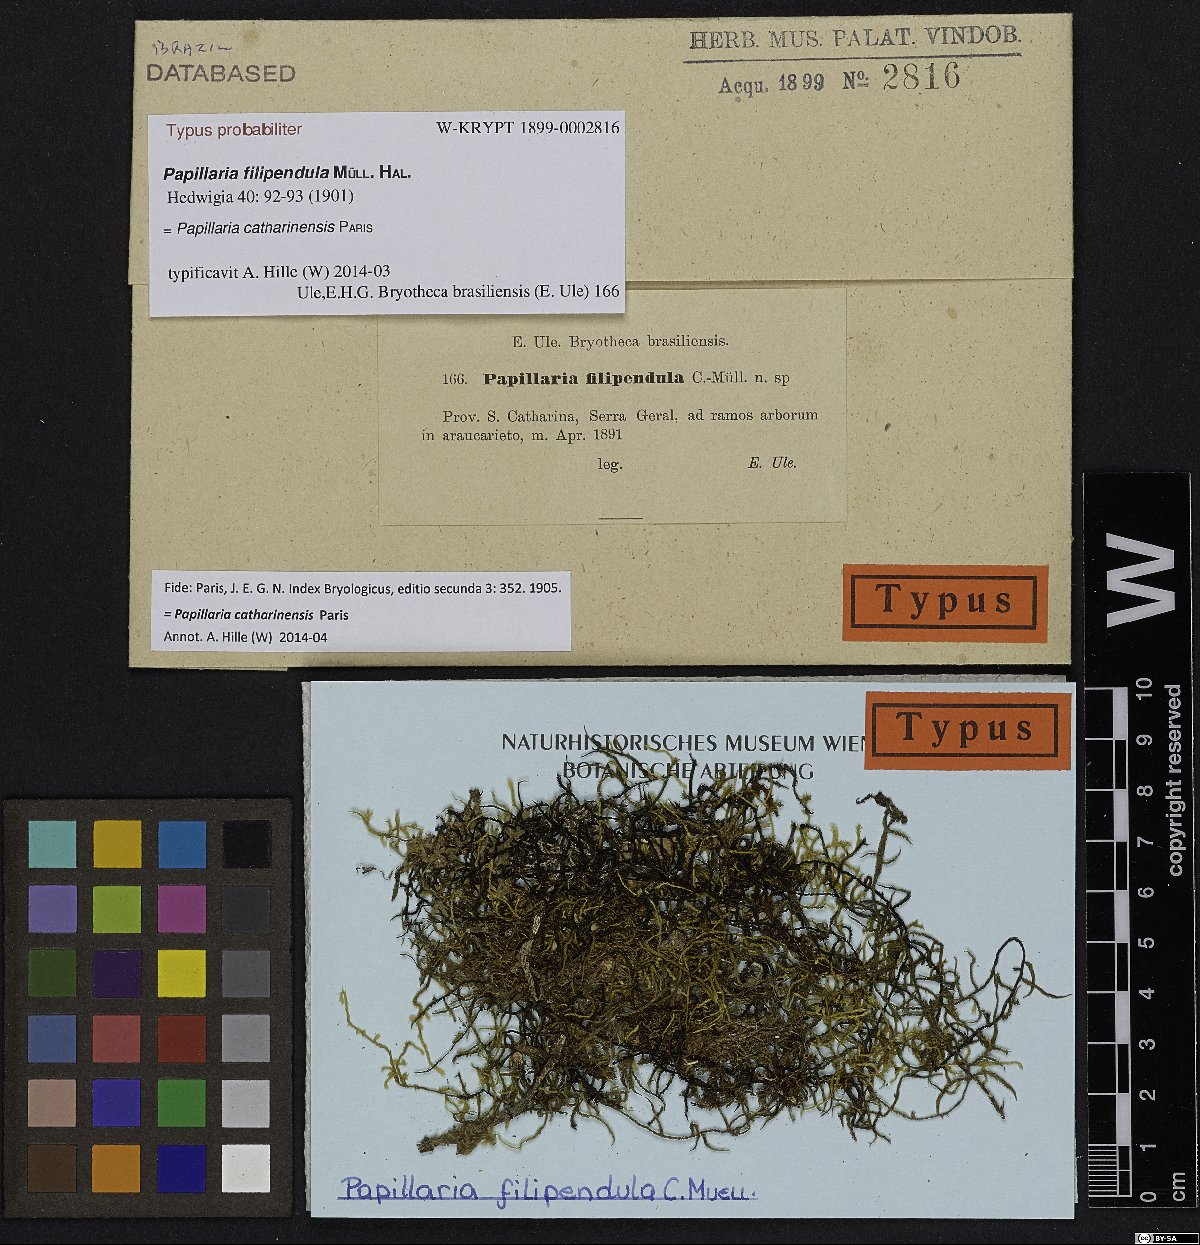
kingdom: Plantae
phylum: Bryophyta
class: Bryopsida
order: Hypnales
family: Meteoriaceae
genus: Papillaria
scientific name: Papillaria catharinensis
